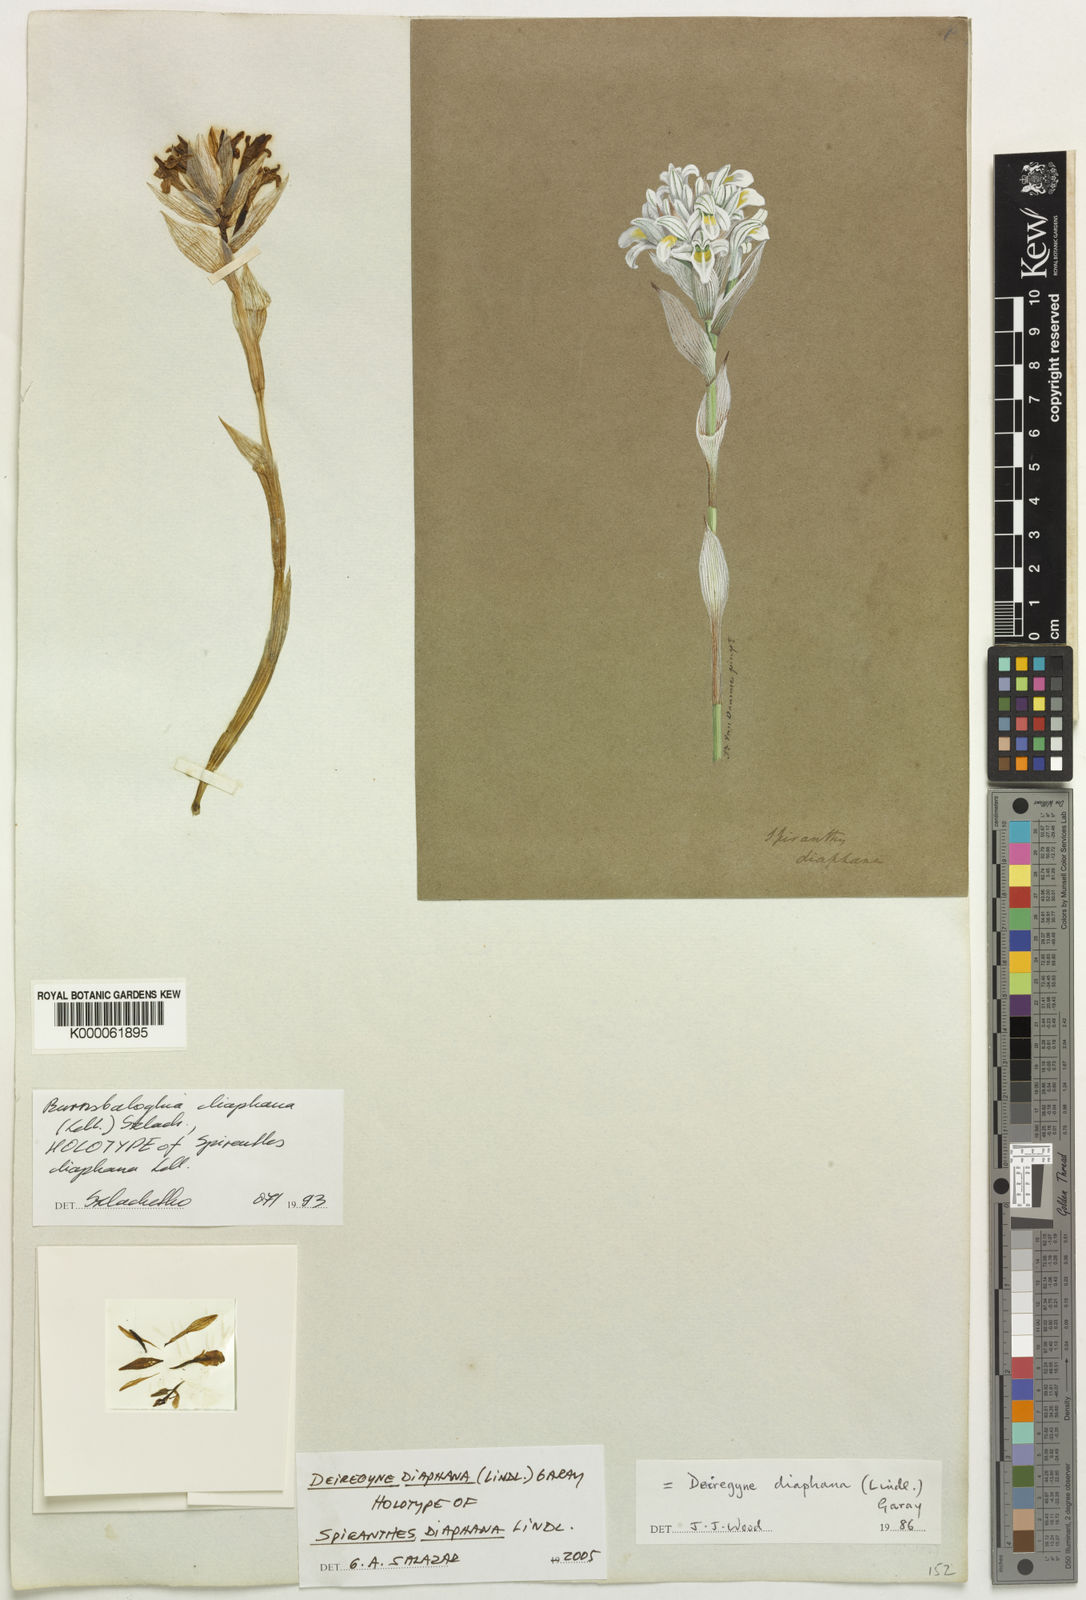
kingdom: Plantae
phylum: Tracheophyta
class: Liliopsida
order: Asparagales
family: Orchidaceae
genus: Deiregyne
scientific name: Deiregyne diaphana
